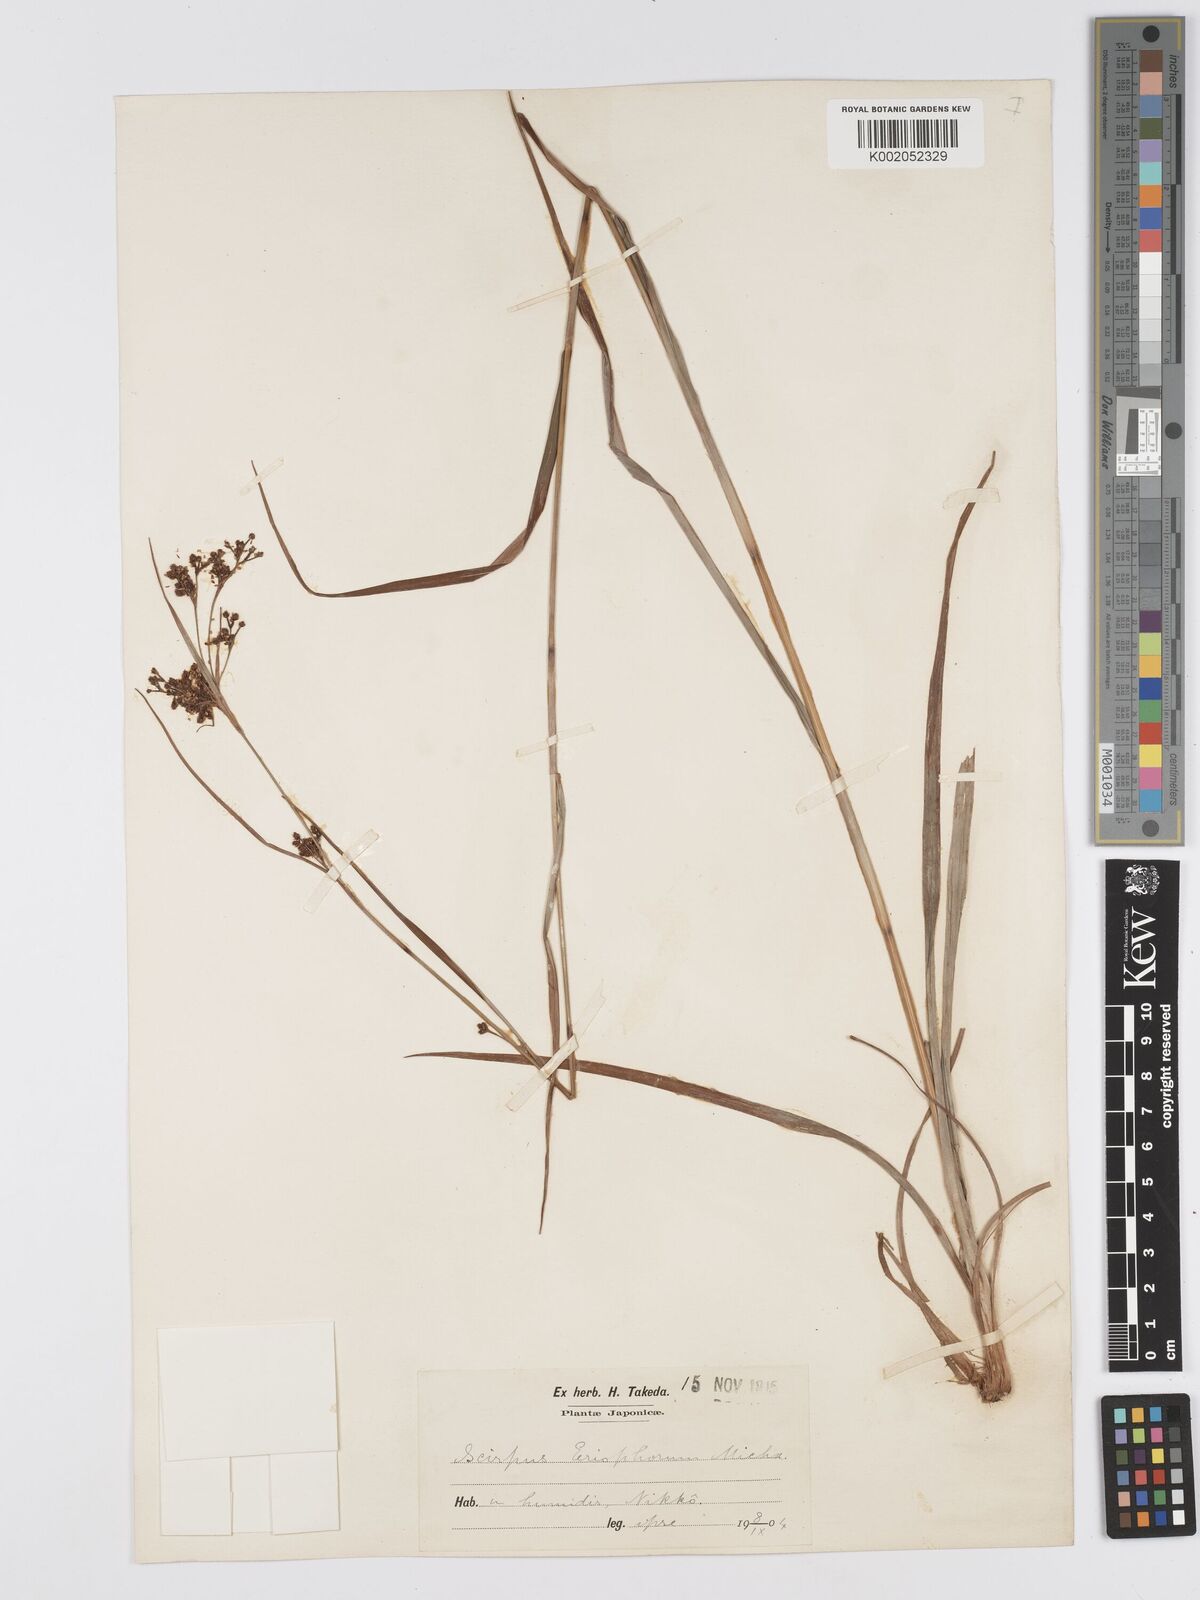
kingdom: Plantae
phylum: Tracheophyta
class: Liliopsida
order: Poales
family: Cyperaceae
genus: Scirpus
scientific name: Scirpus cyperinus
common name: Black-sheathed bulrush
